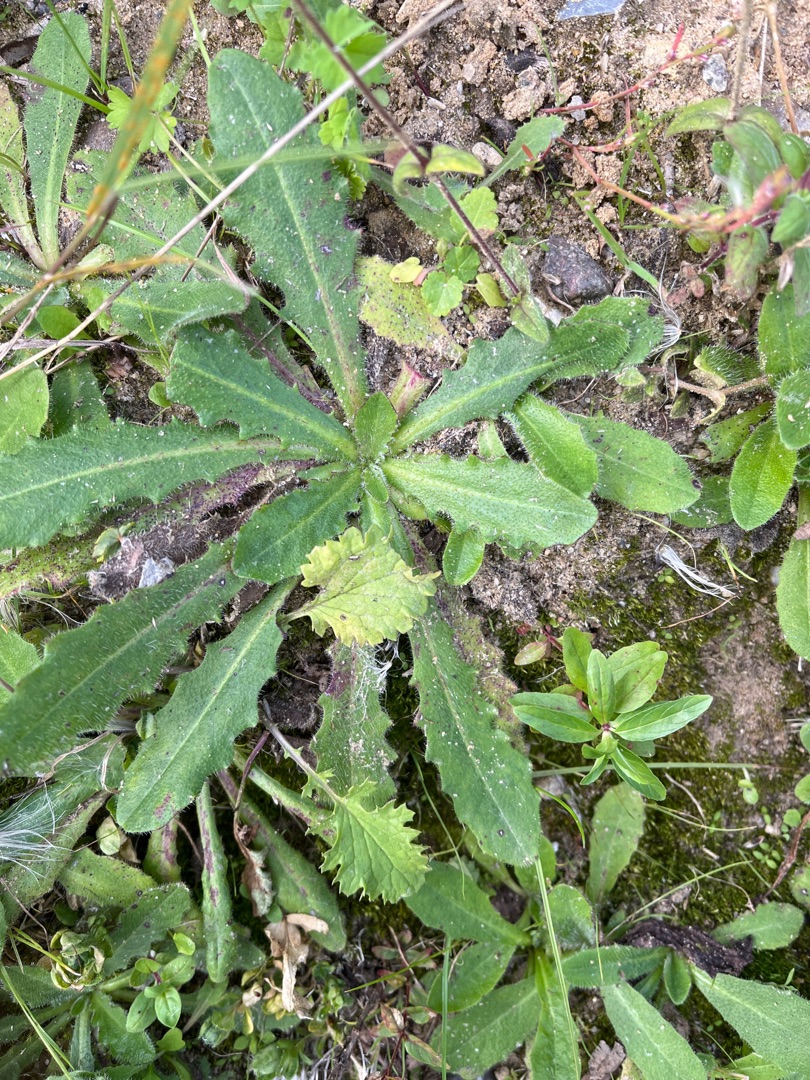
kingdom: Plantae
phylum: Tracheophyta
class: Magnoliopsida
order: Asterales
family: Asteraceae
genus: Hypochaeris
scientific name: Hypochaeris radicata
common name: Almindelig kongepen
